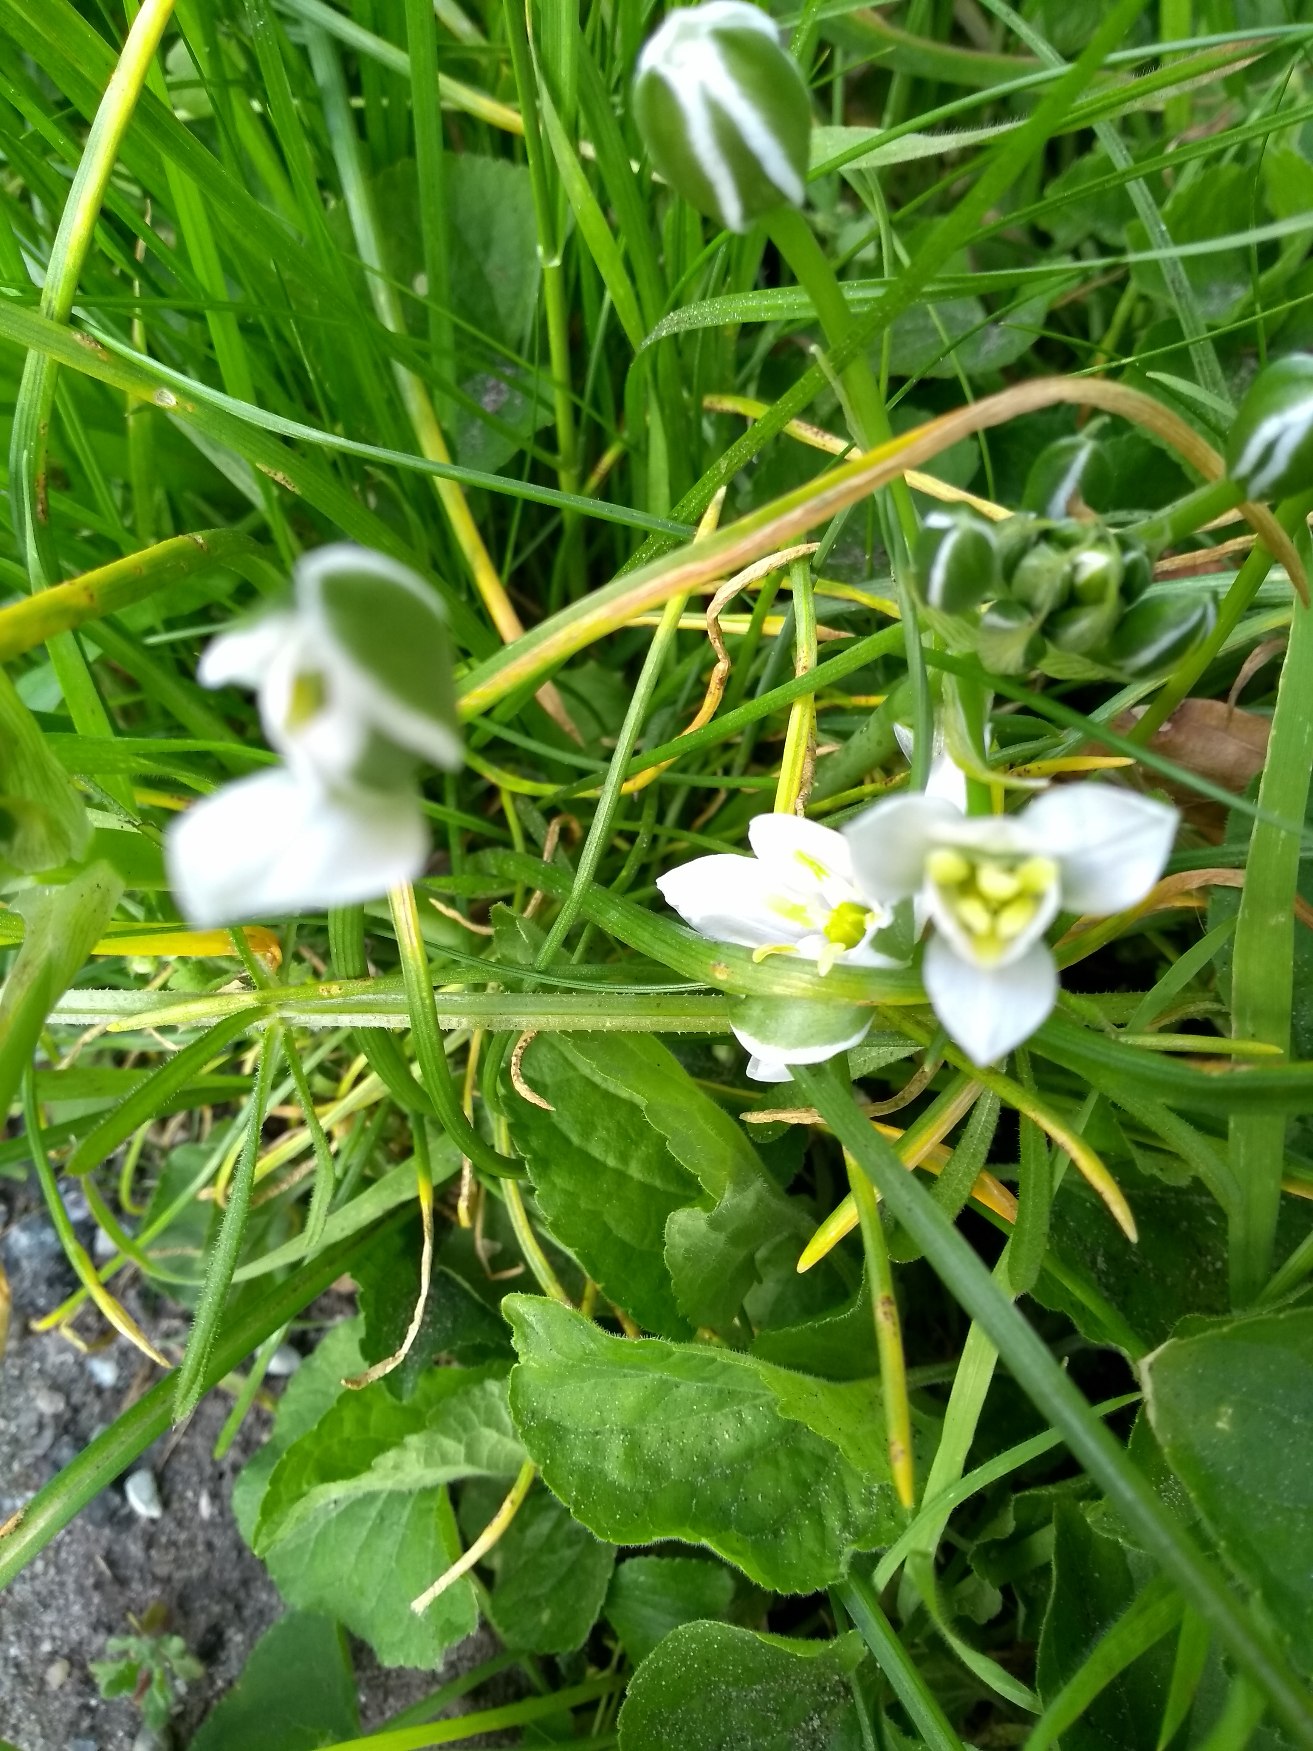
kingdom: Plantae
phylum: Tracheophyta
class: Liliopsida
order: Asparagales
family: Asparagaceae
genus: Ornithogalum
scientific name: Ornithogalum divergens
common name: Udspærret fuglemælk
